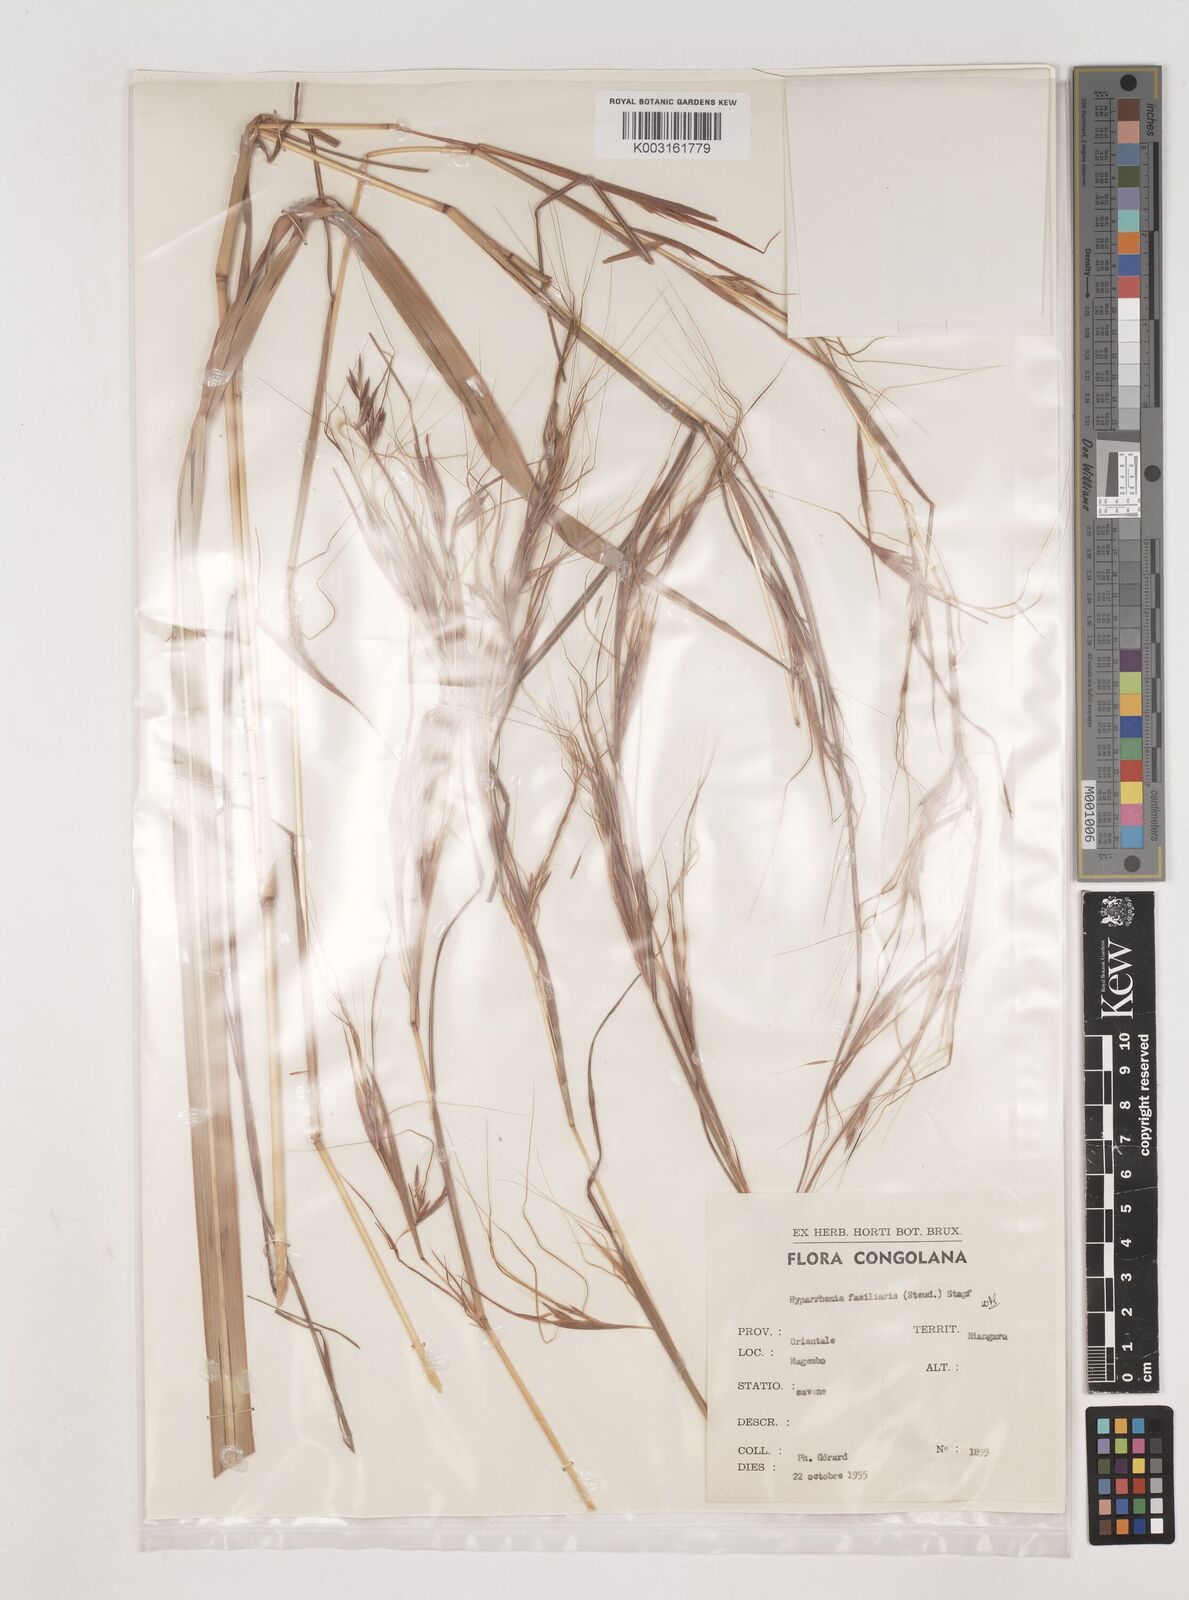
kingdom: Plantae
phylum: Tracheophyta
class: Liliopsida
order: Poales
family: Poaceae
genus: Hyparrhenia
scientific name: Hyparrhenia familiaris
